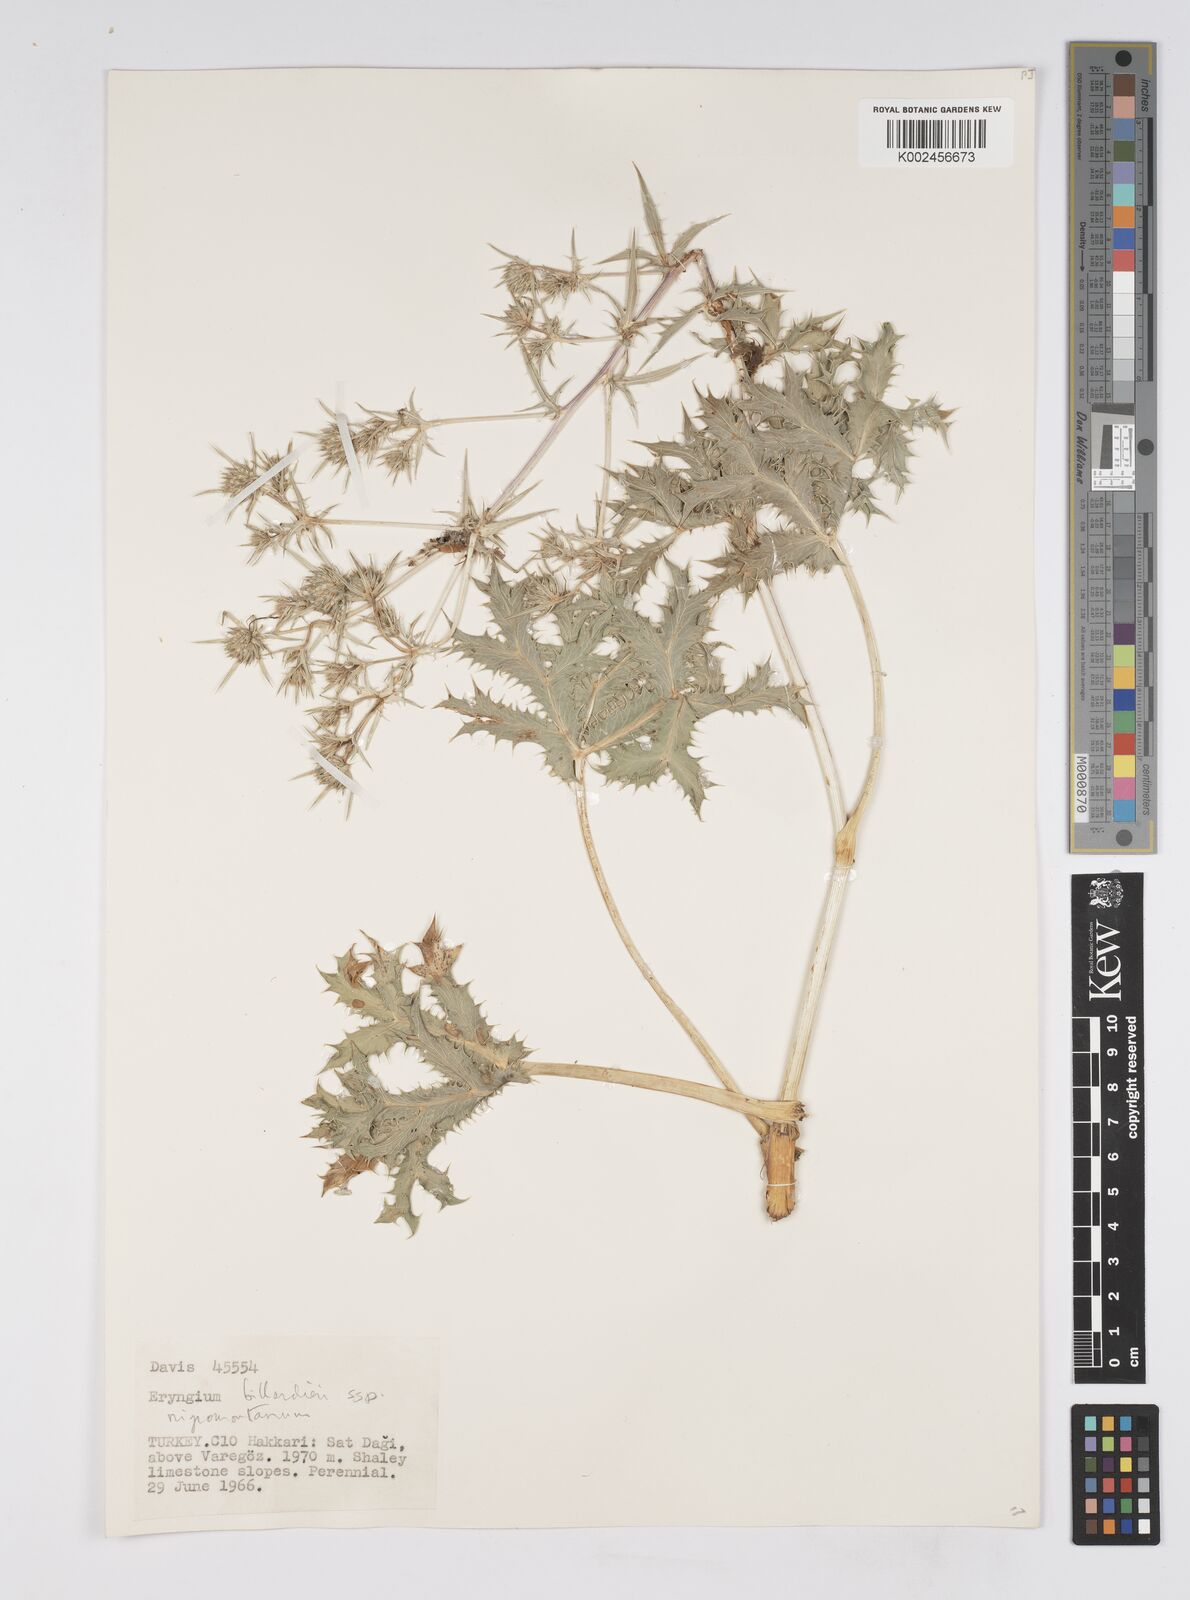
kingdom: Plantae
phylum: Tracheophyta
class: Magnoliopsida
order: Apiales
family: Apiaceae
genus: Eryngium
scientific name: Eryngium billardierei
